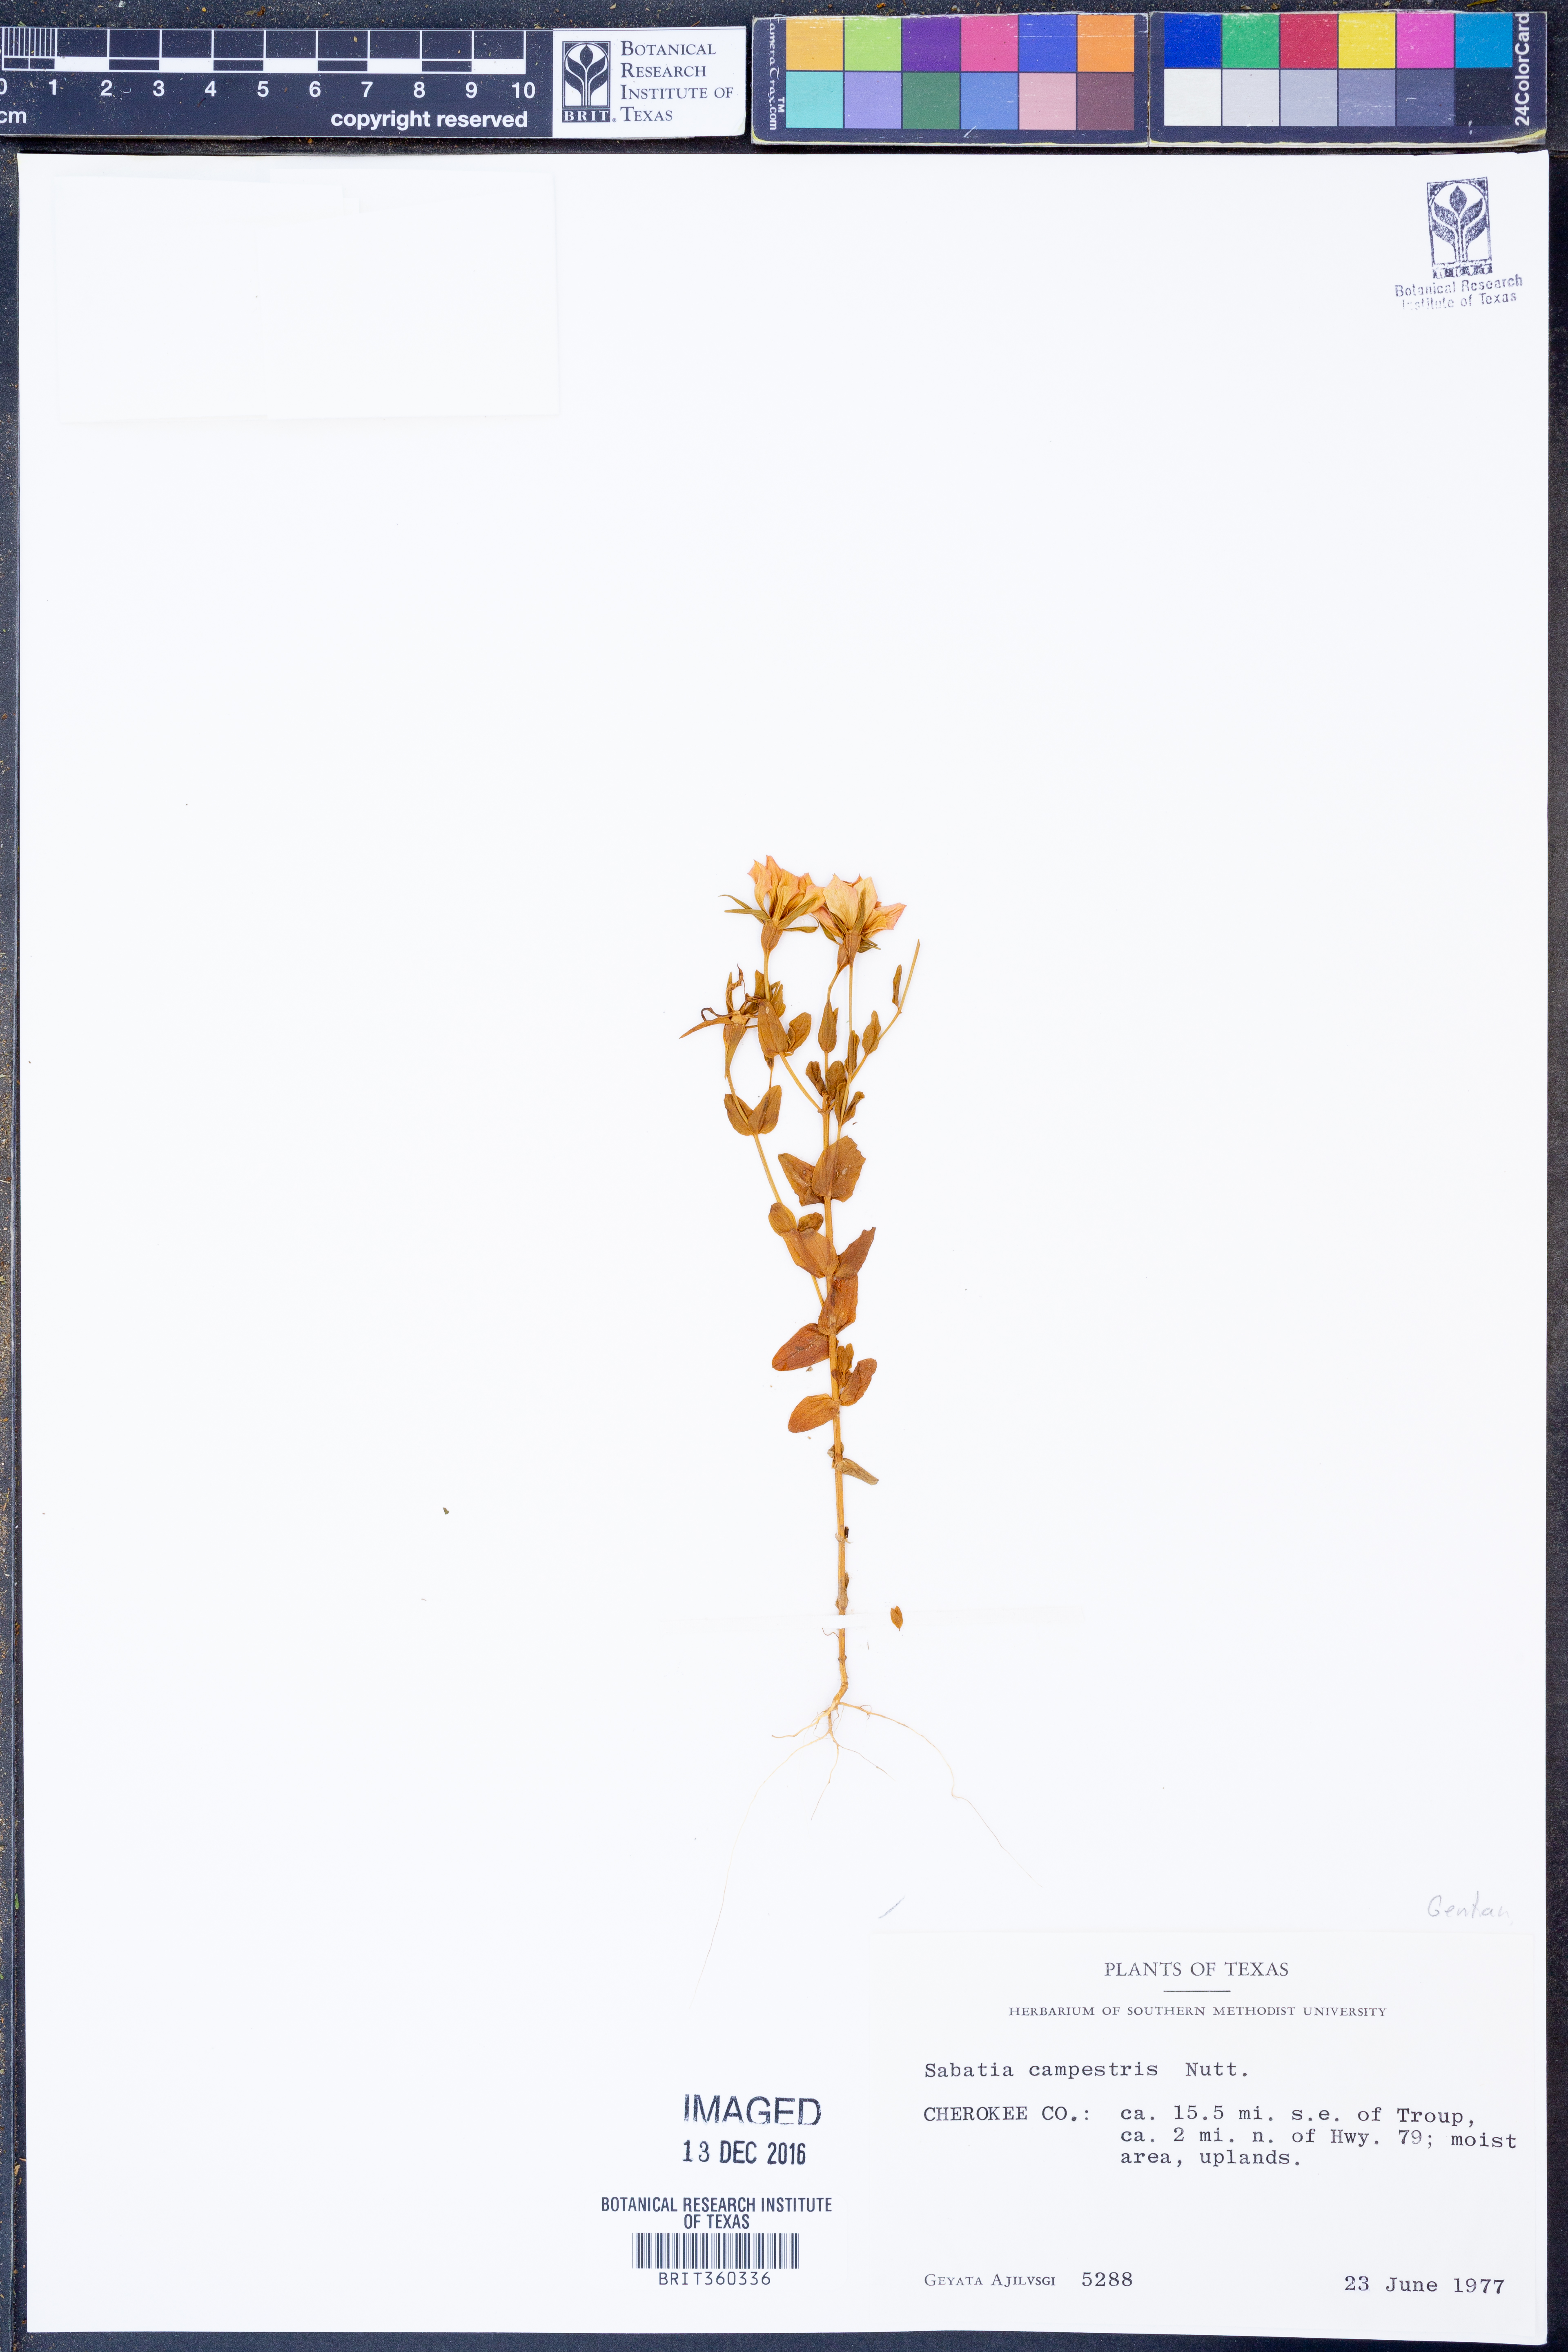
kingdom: Plantae
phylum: Tracheophyta
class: Magnoliopsida
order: Gentianales
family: Gentianaceae
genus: Sabatia
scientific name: Sabatia campestris
